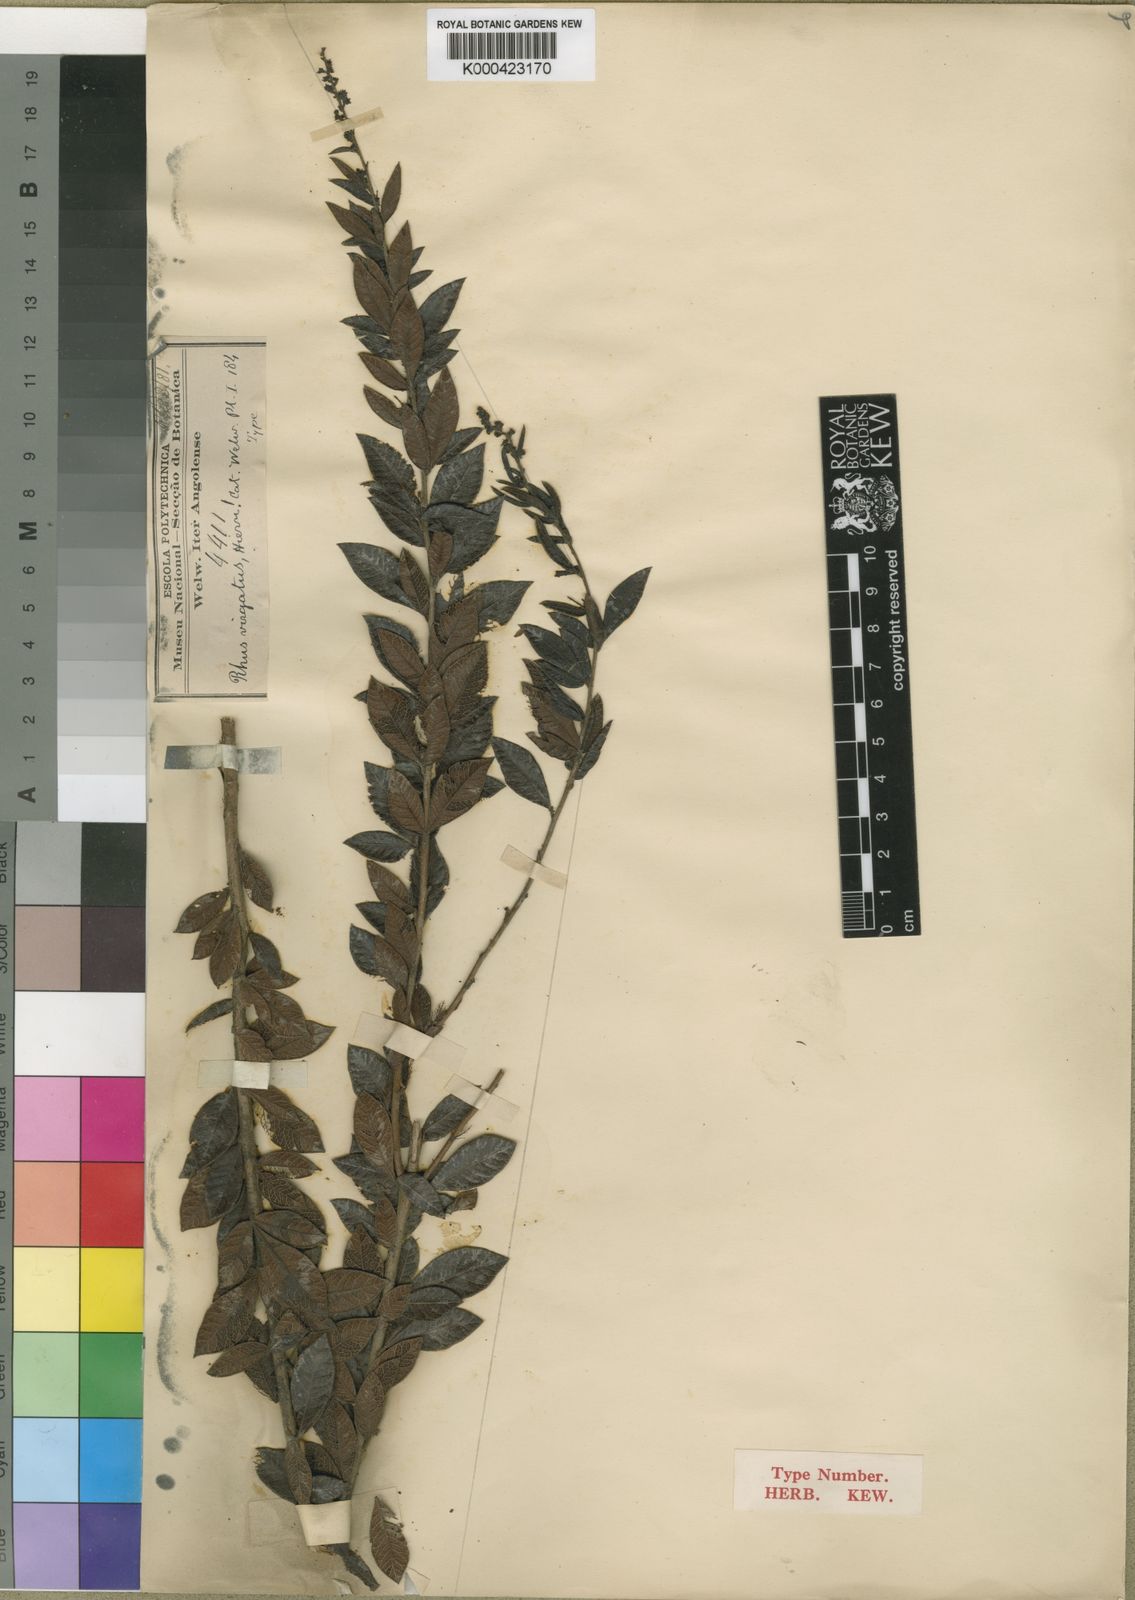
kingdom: Plantae
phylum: Tracheophyta
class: Magnoliopsida
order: Sapindales
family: Anacardiaceae
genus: Searsia
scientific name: Searsia angolensis
